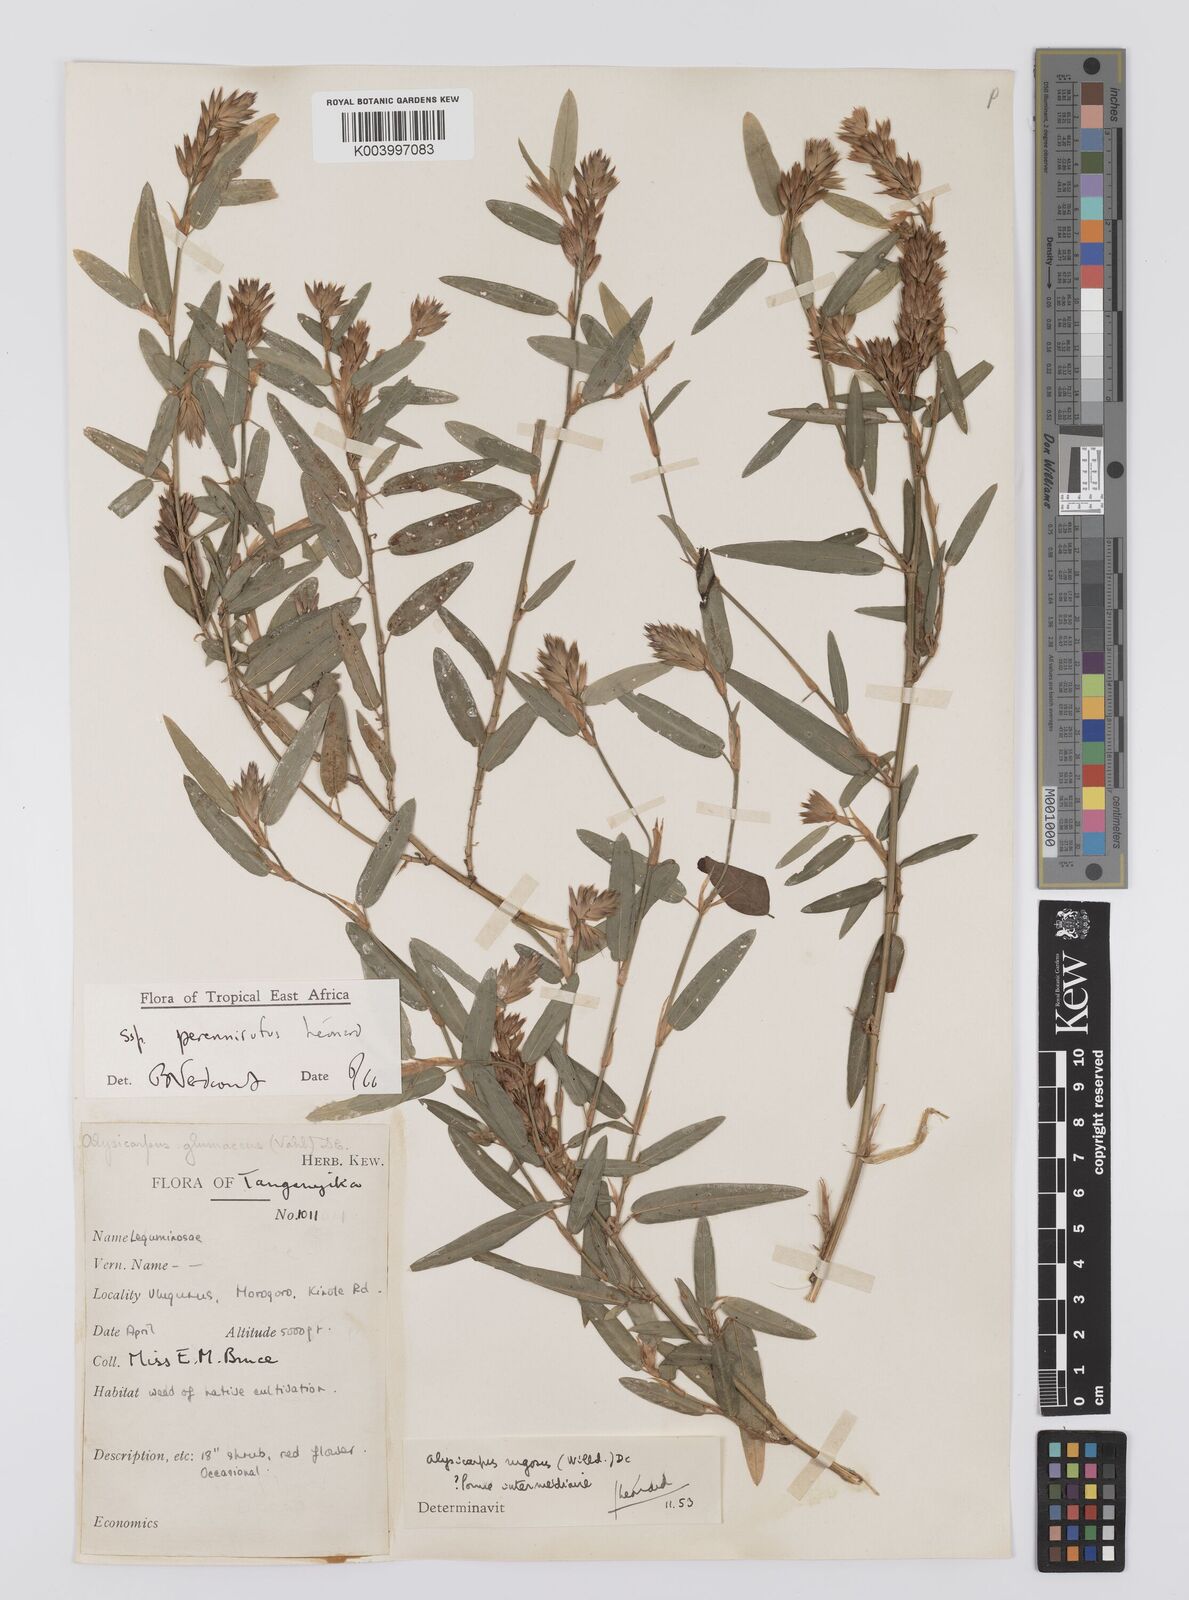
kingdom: Plantae
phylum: Tracheophyta
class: Magnoliopsida
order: Fabales
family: Fabaceae
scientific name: Fabaceae
